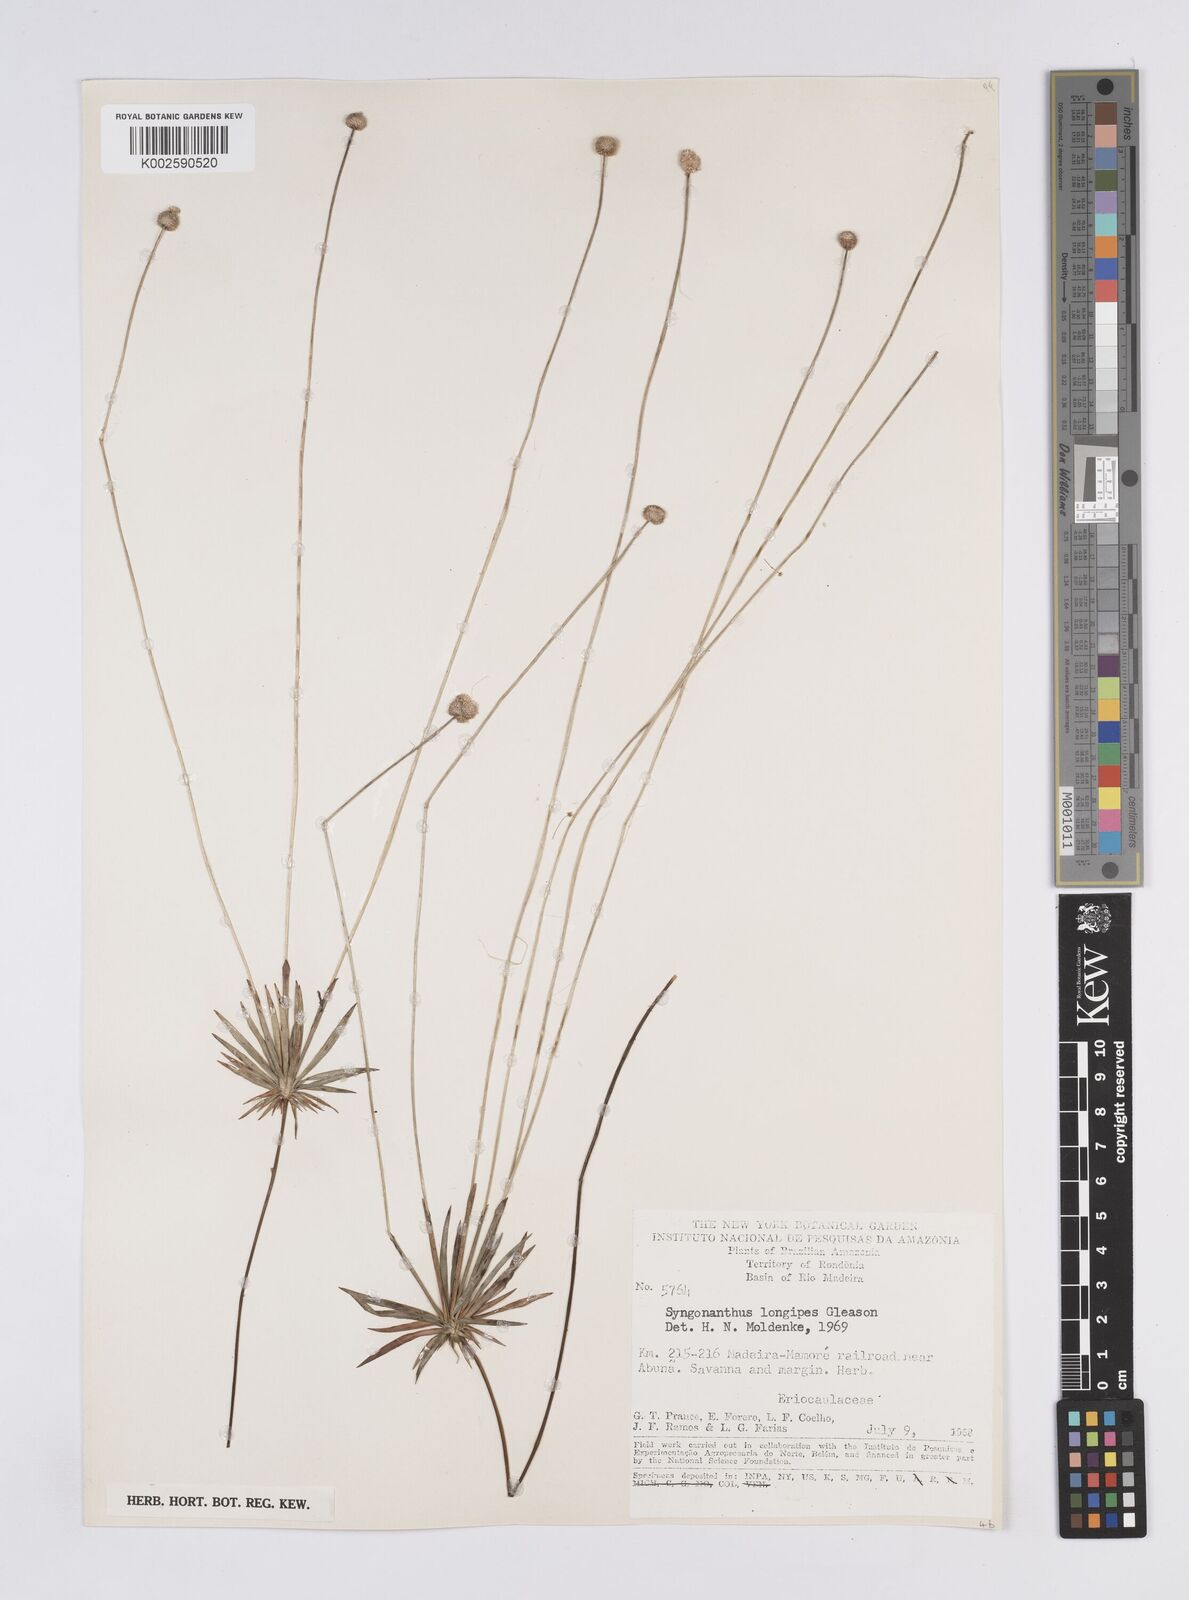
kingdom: Plantae
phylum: Tracheophyta
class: Liliopsida
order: Poales
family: Eriocaulaceae
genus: Syngonanthus
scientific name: Syngonanthus longipes
